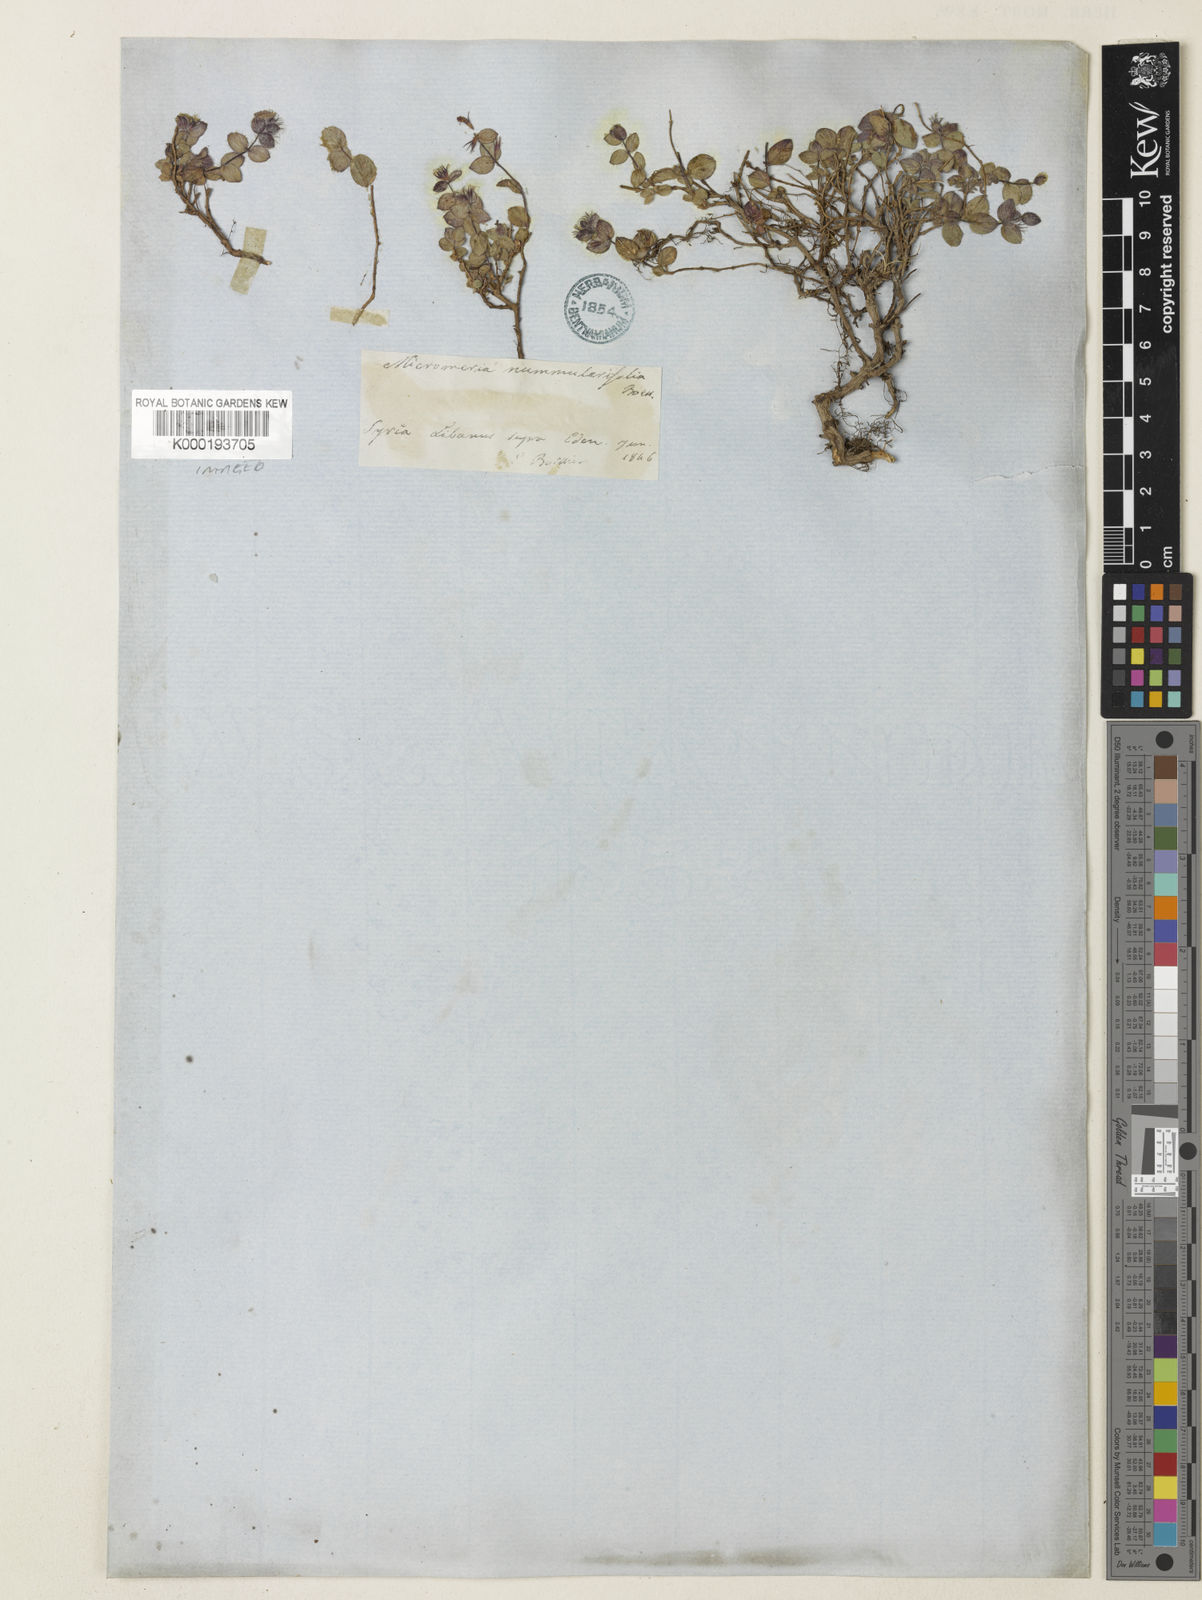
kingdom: Plantae
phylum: Tracheophyta
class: Magnoliopsida
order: Lamiales
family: Lamiaceae
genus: Clinopodium
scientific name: Clinopodium nummulariifolium
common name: Nummular-leaved savory
